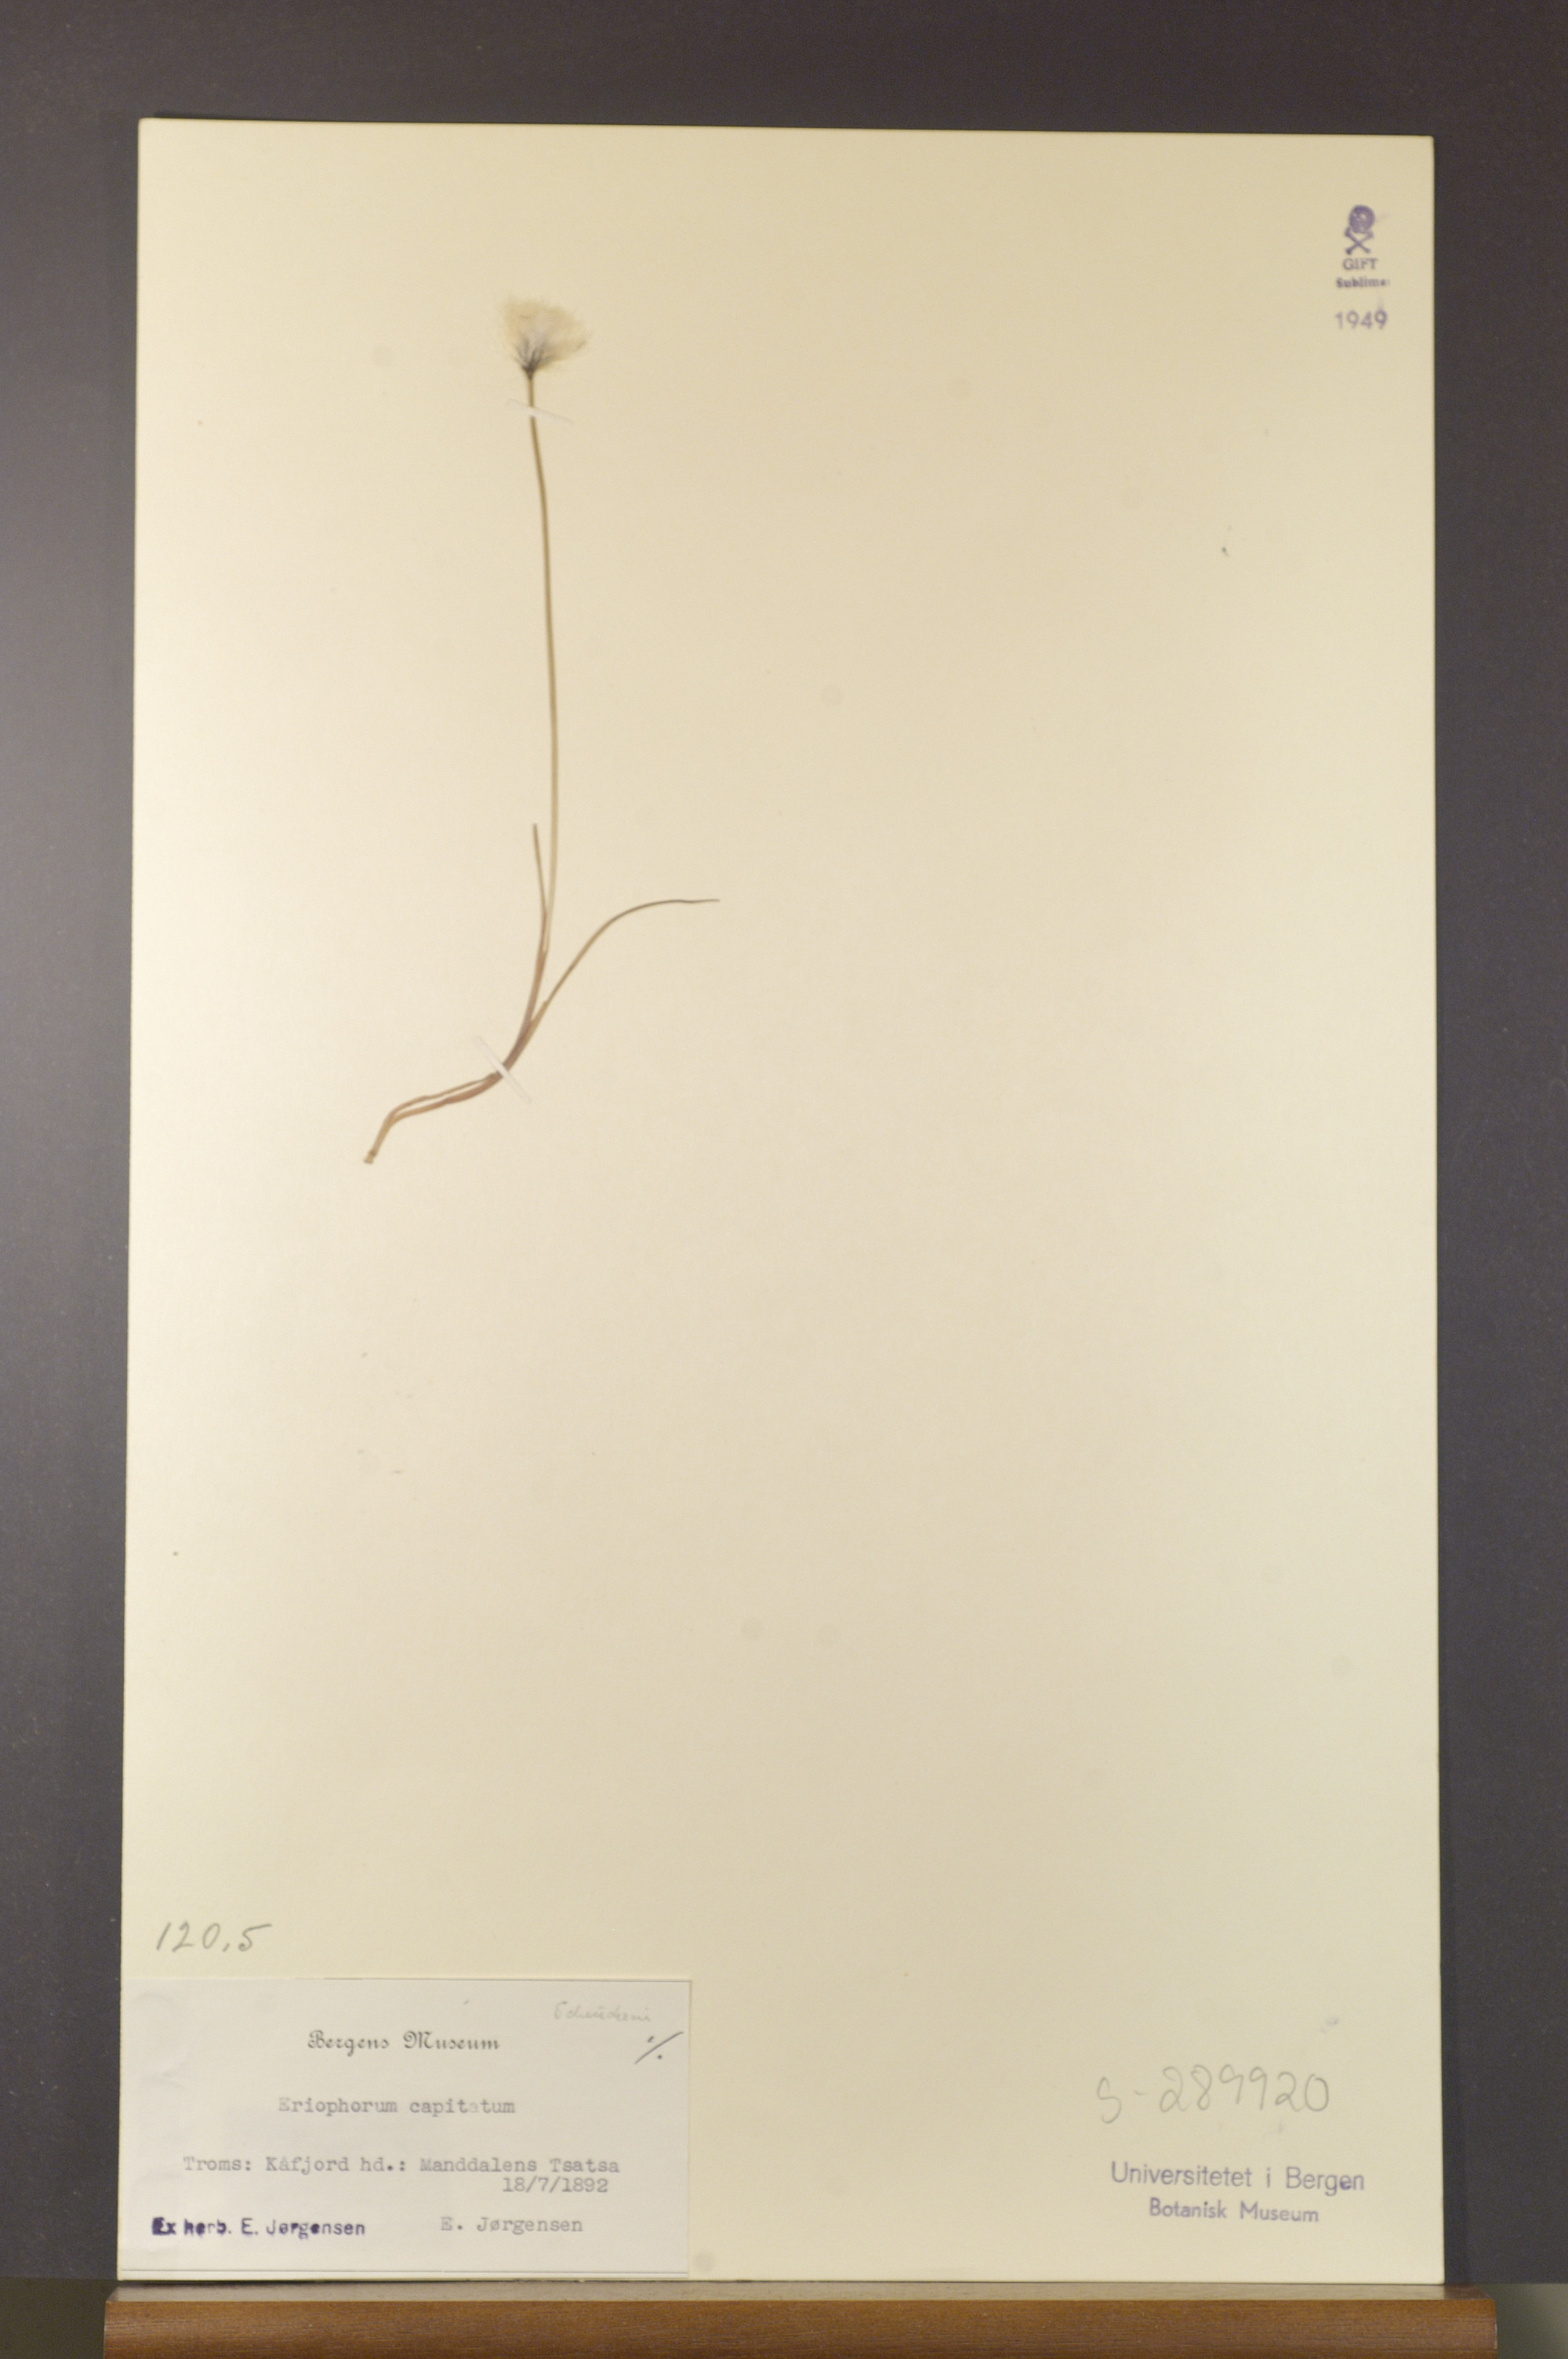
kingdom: Plantae
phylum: Tracheophyta
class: Liliopsida
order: Poales
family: Cyperaceae
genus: Eriophorum
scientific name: Eriophorum scheuchzeri
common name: Scheuchzer's cottongrass
